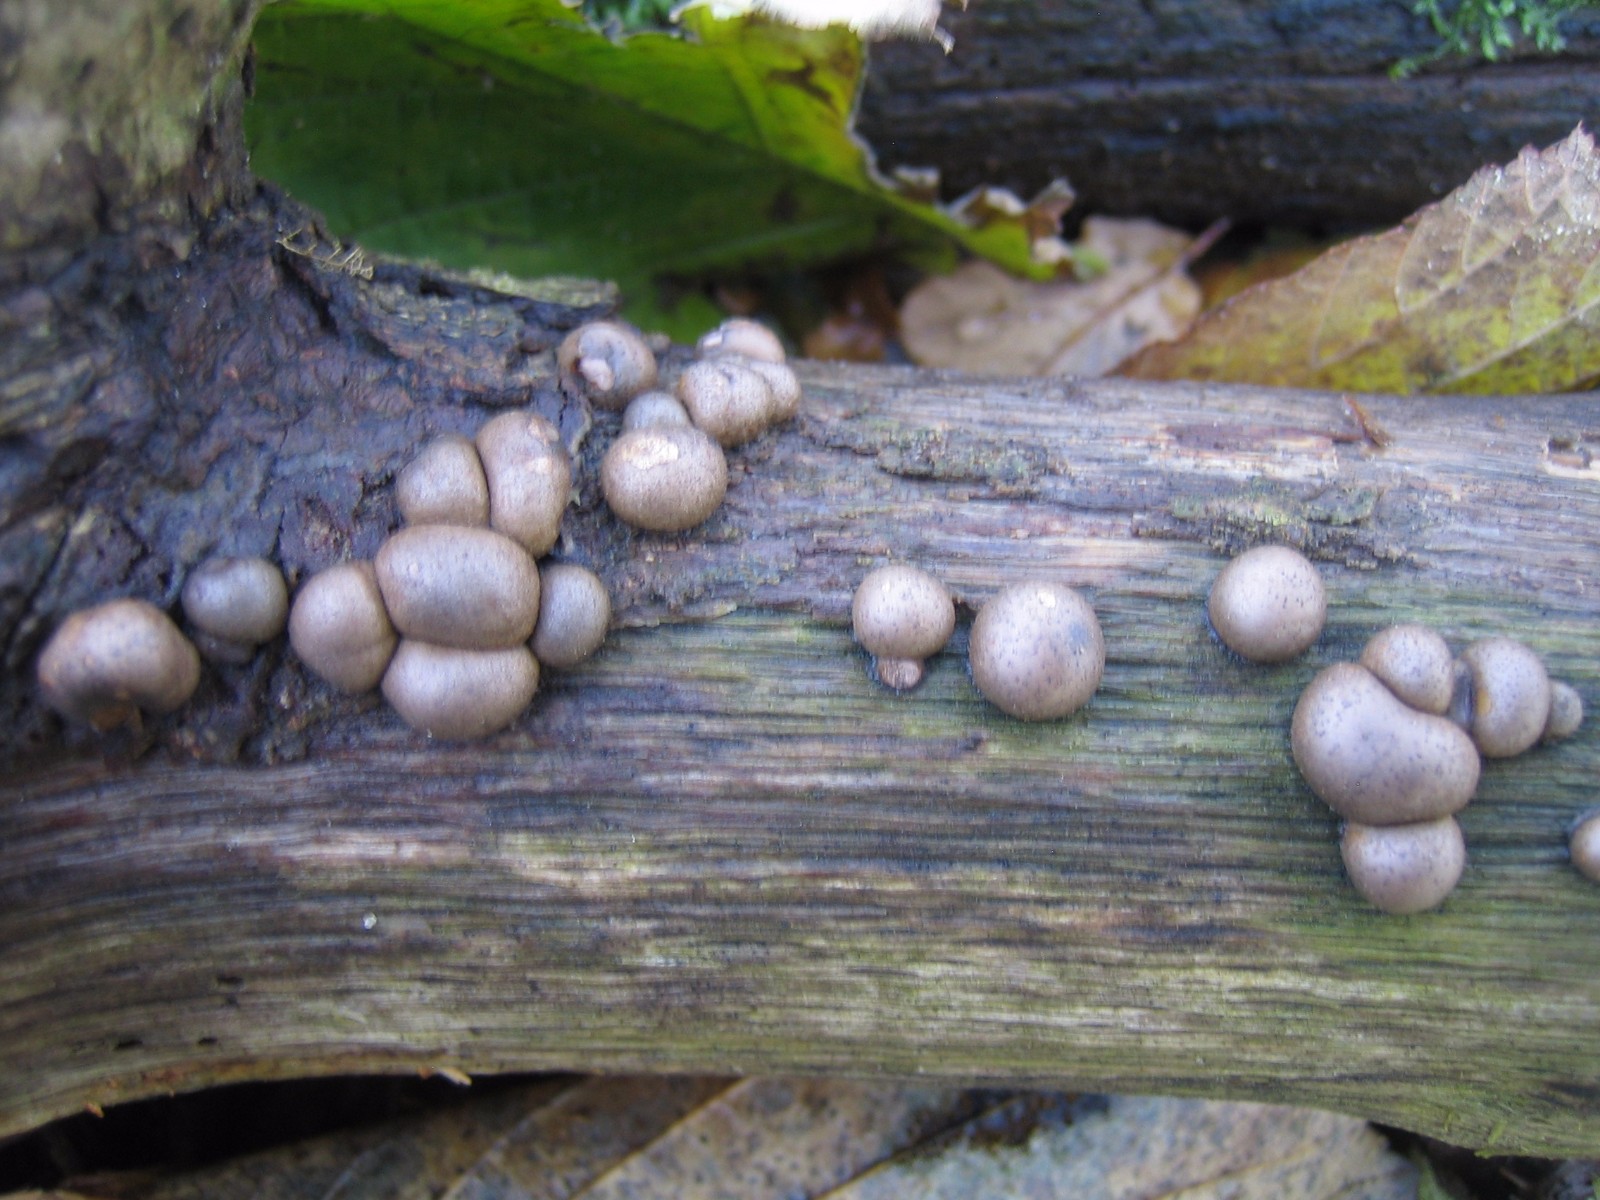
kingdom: Protozoa
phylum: Mycetozoa
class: Myxomycetes
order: Cribrariales
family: Tubiferaceae
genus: Lycogala
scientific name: Lycogala epidendrum
